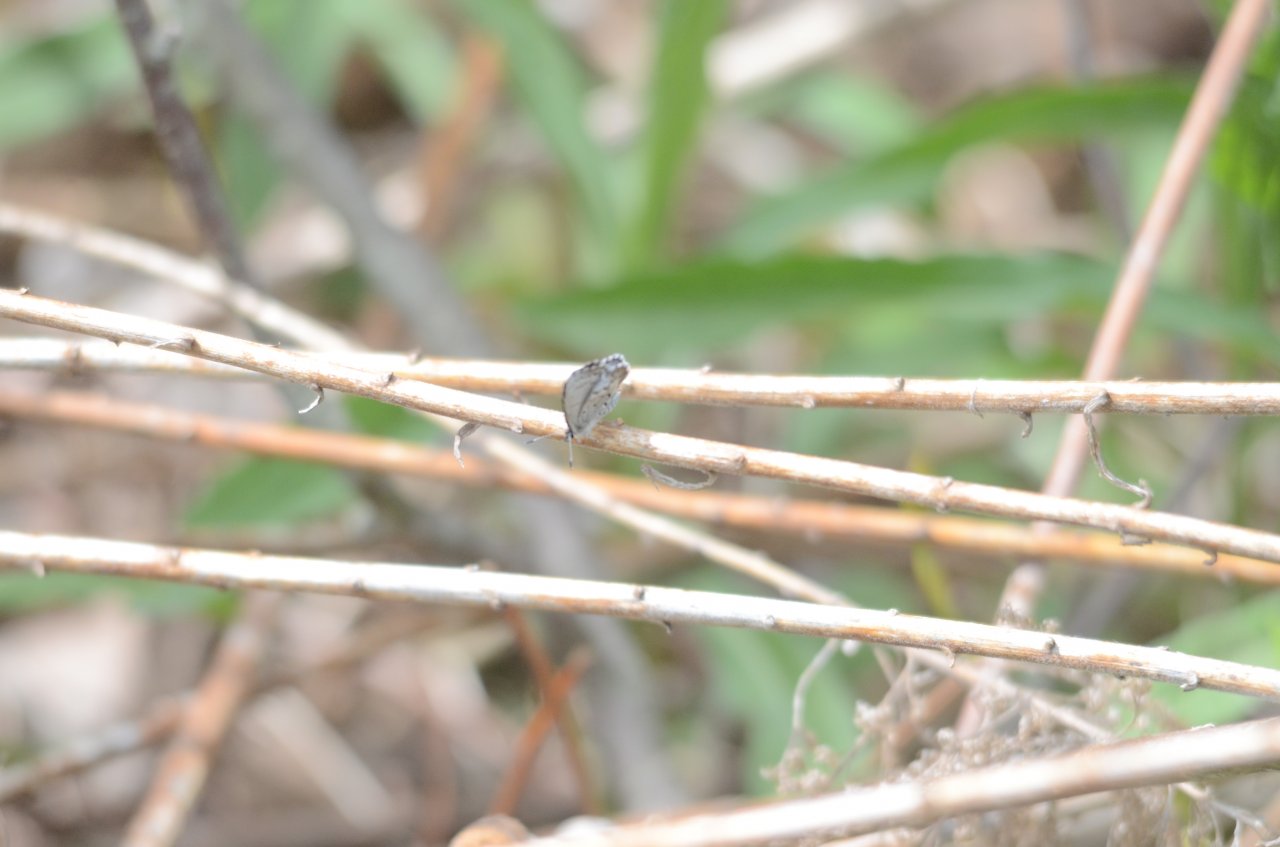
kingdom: Animalia
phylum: Arthropoda
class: Insecta
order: Lepidoptera
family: Lycaenidae
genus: Celastrina
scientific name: Celastrina lucia
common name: Northern Spring Azure
